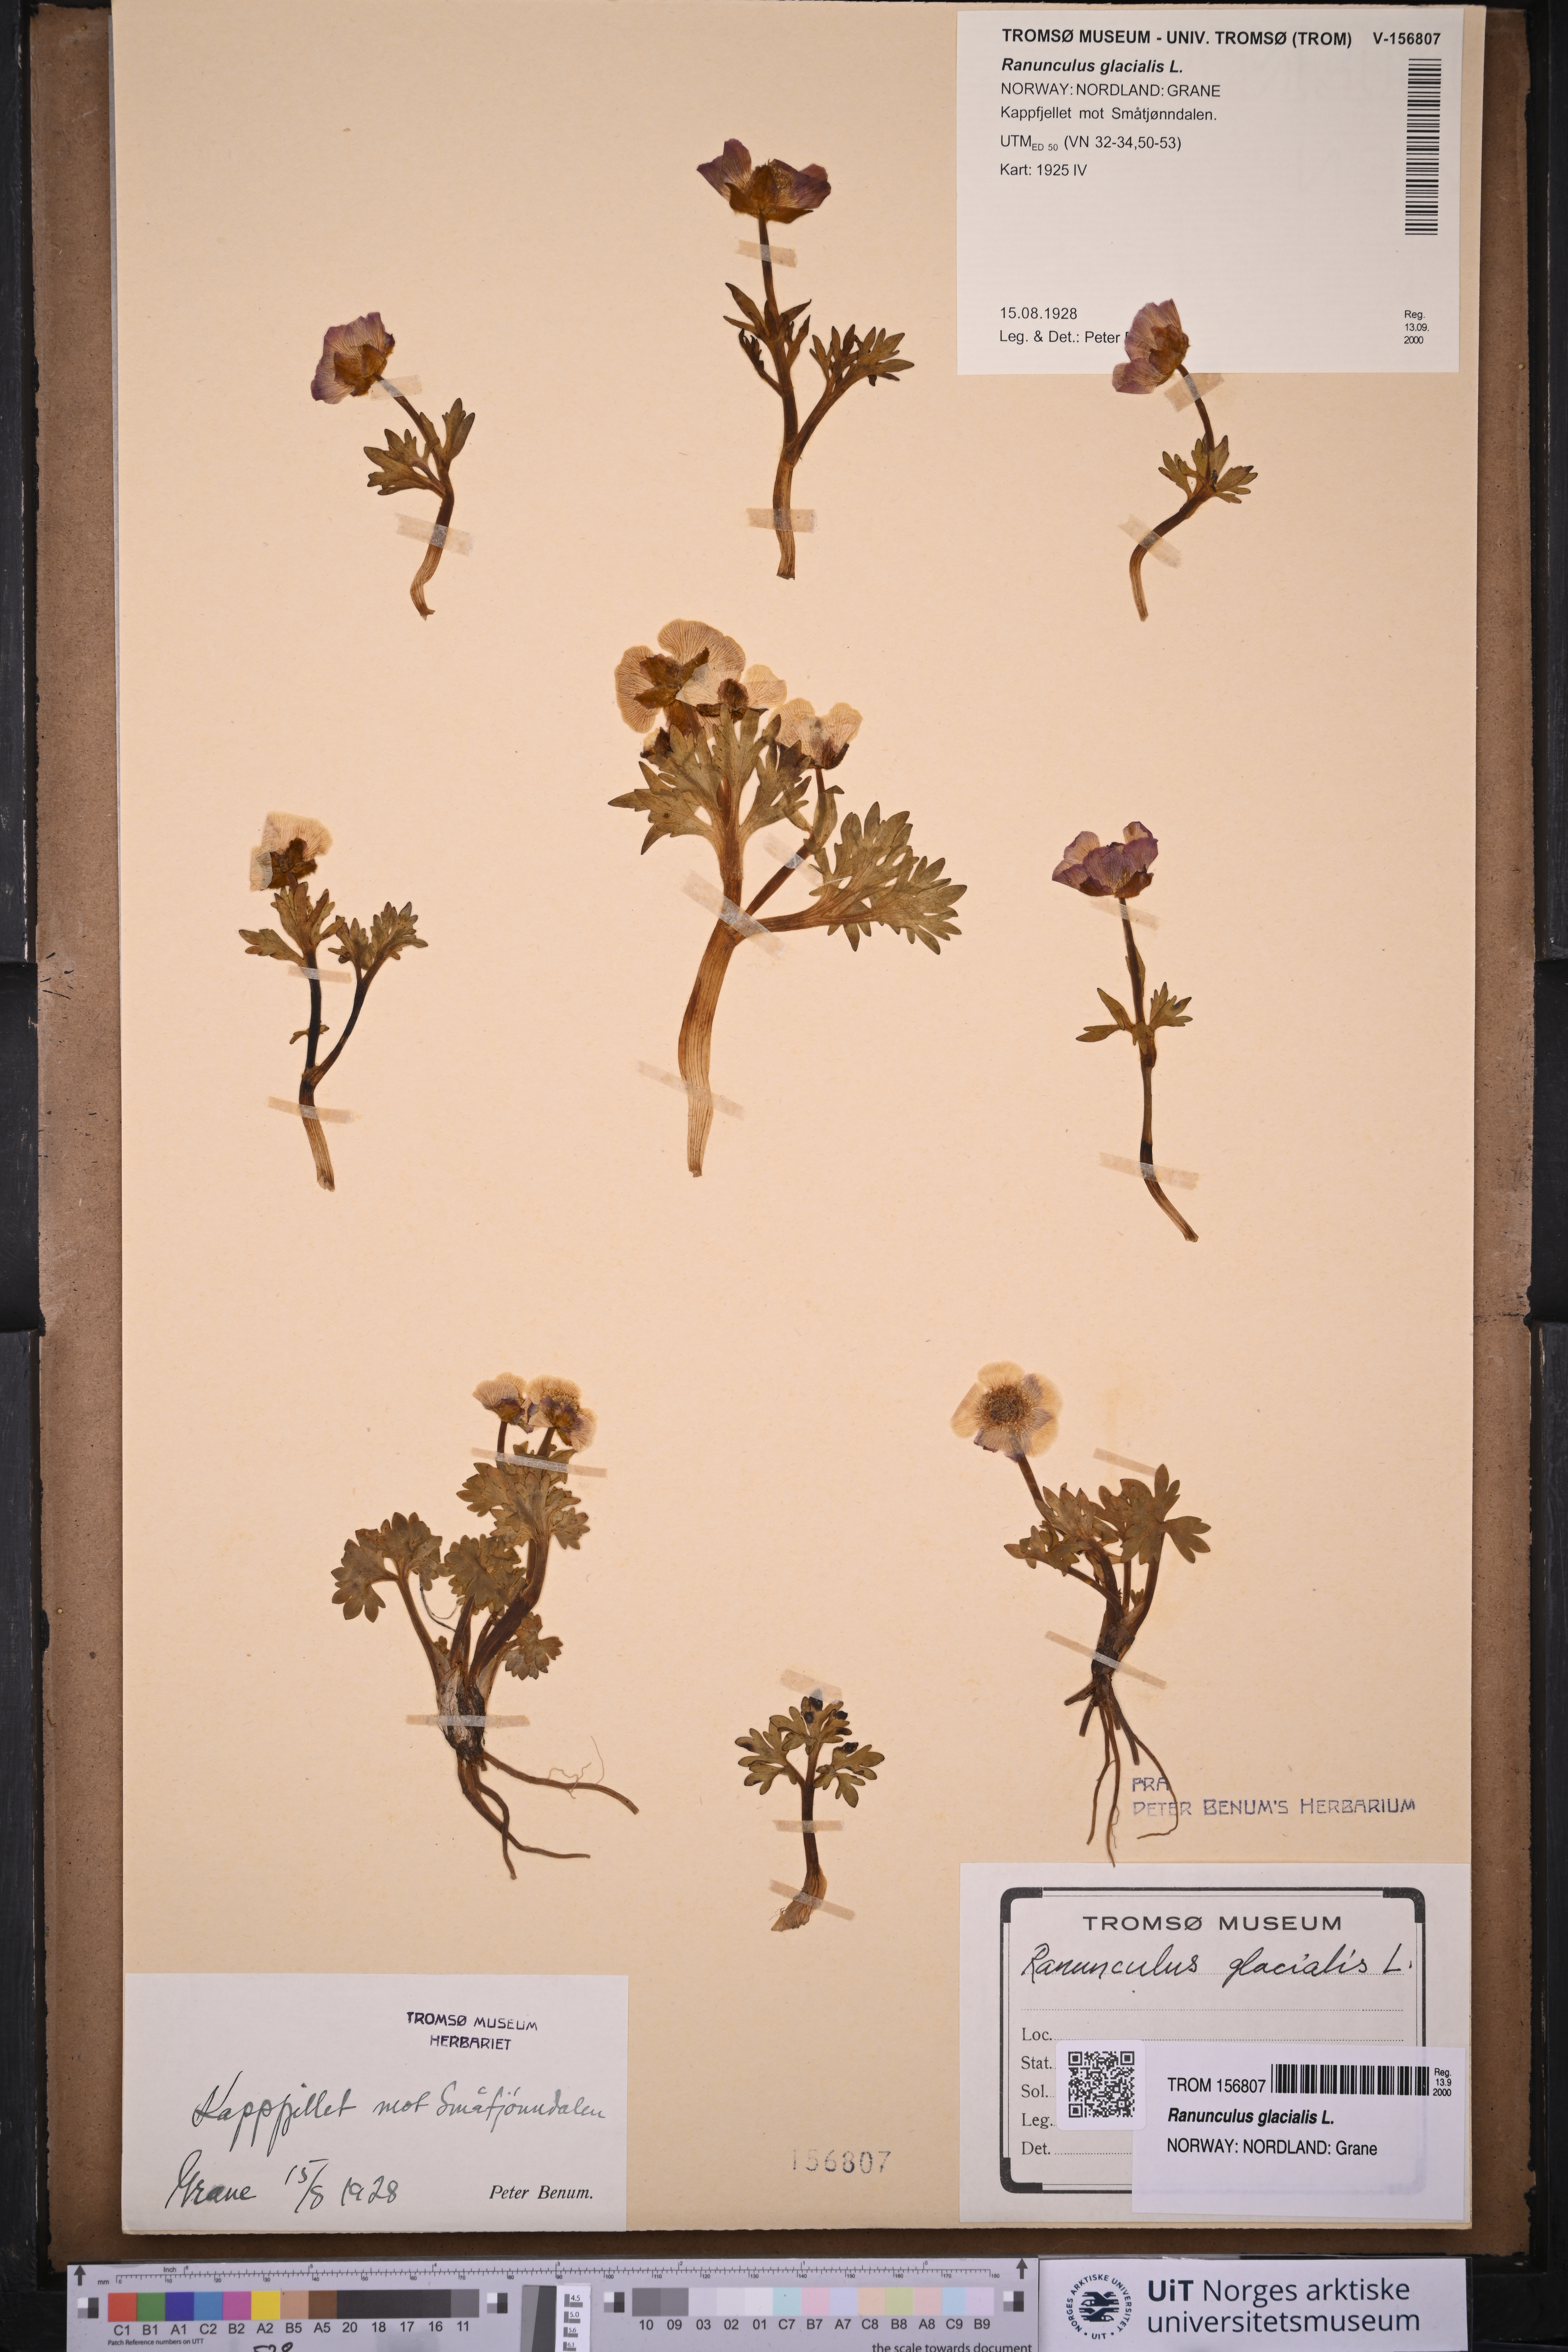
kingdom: Plantae
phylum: Tracheophyta
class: Magnoliopsida
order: Ranunculales
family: Ranunculaceae
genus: Ranunculus
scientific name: Ranunculus glacialis
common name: Glacier buttercup
